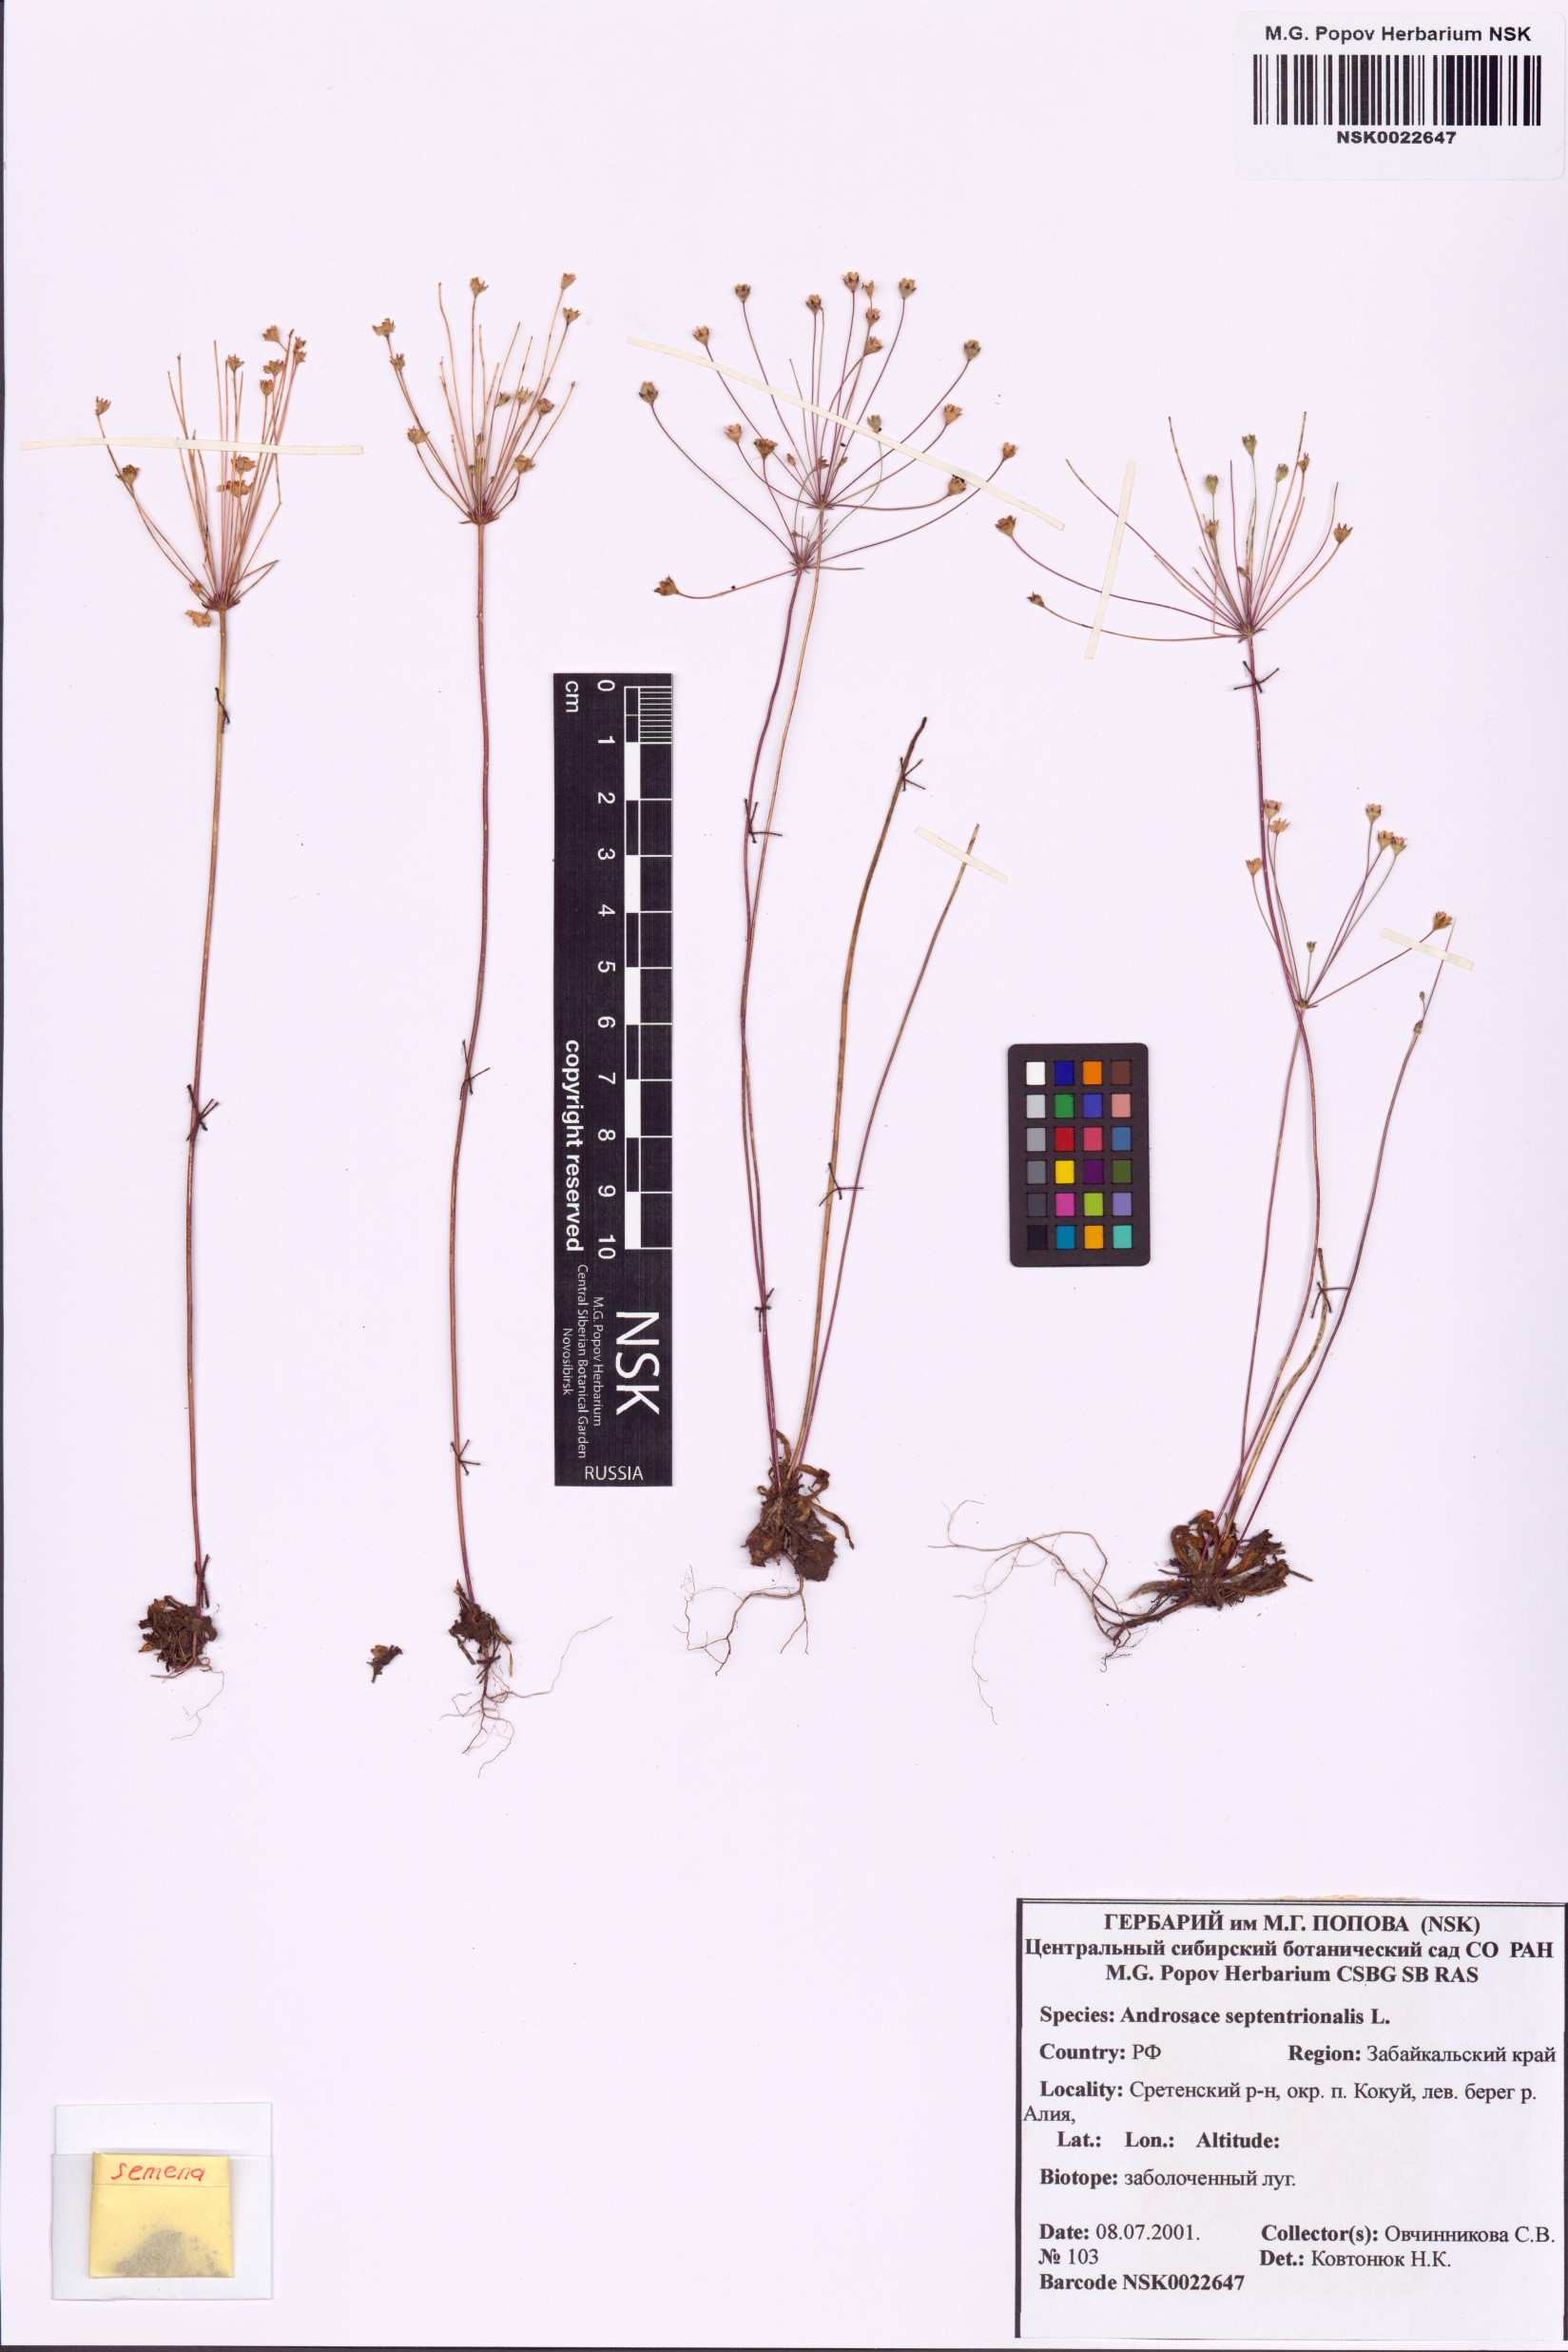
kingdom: Plantae
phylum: Tracheophyta
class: Magnoliopsida
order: Ericales
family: Primulaceae
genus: Androsace
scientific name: Androsace septentrionalis
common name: Hairy northern fairy-candelabra
